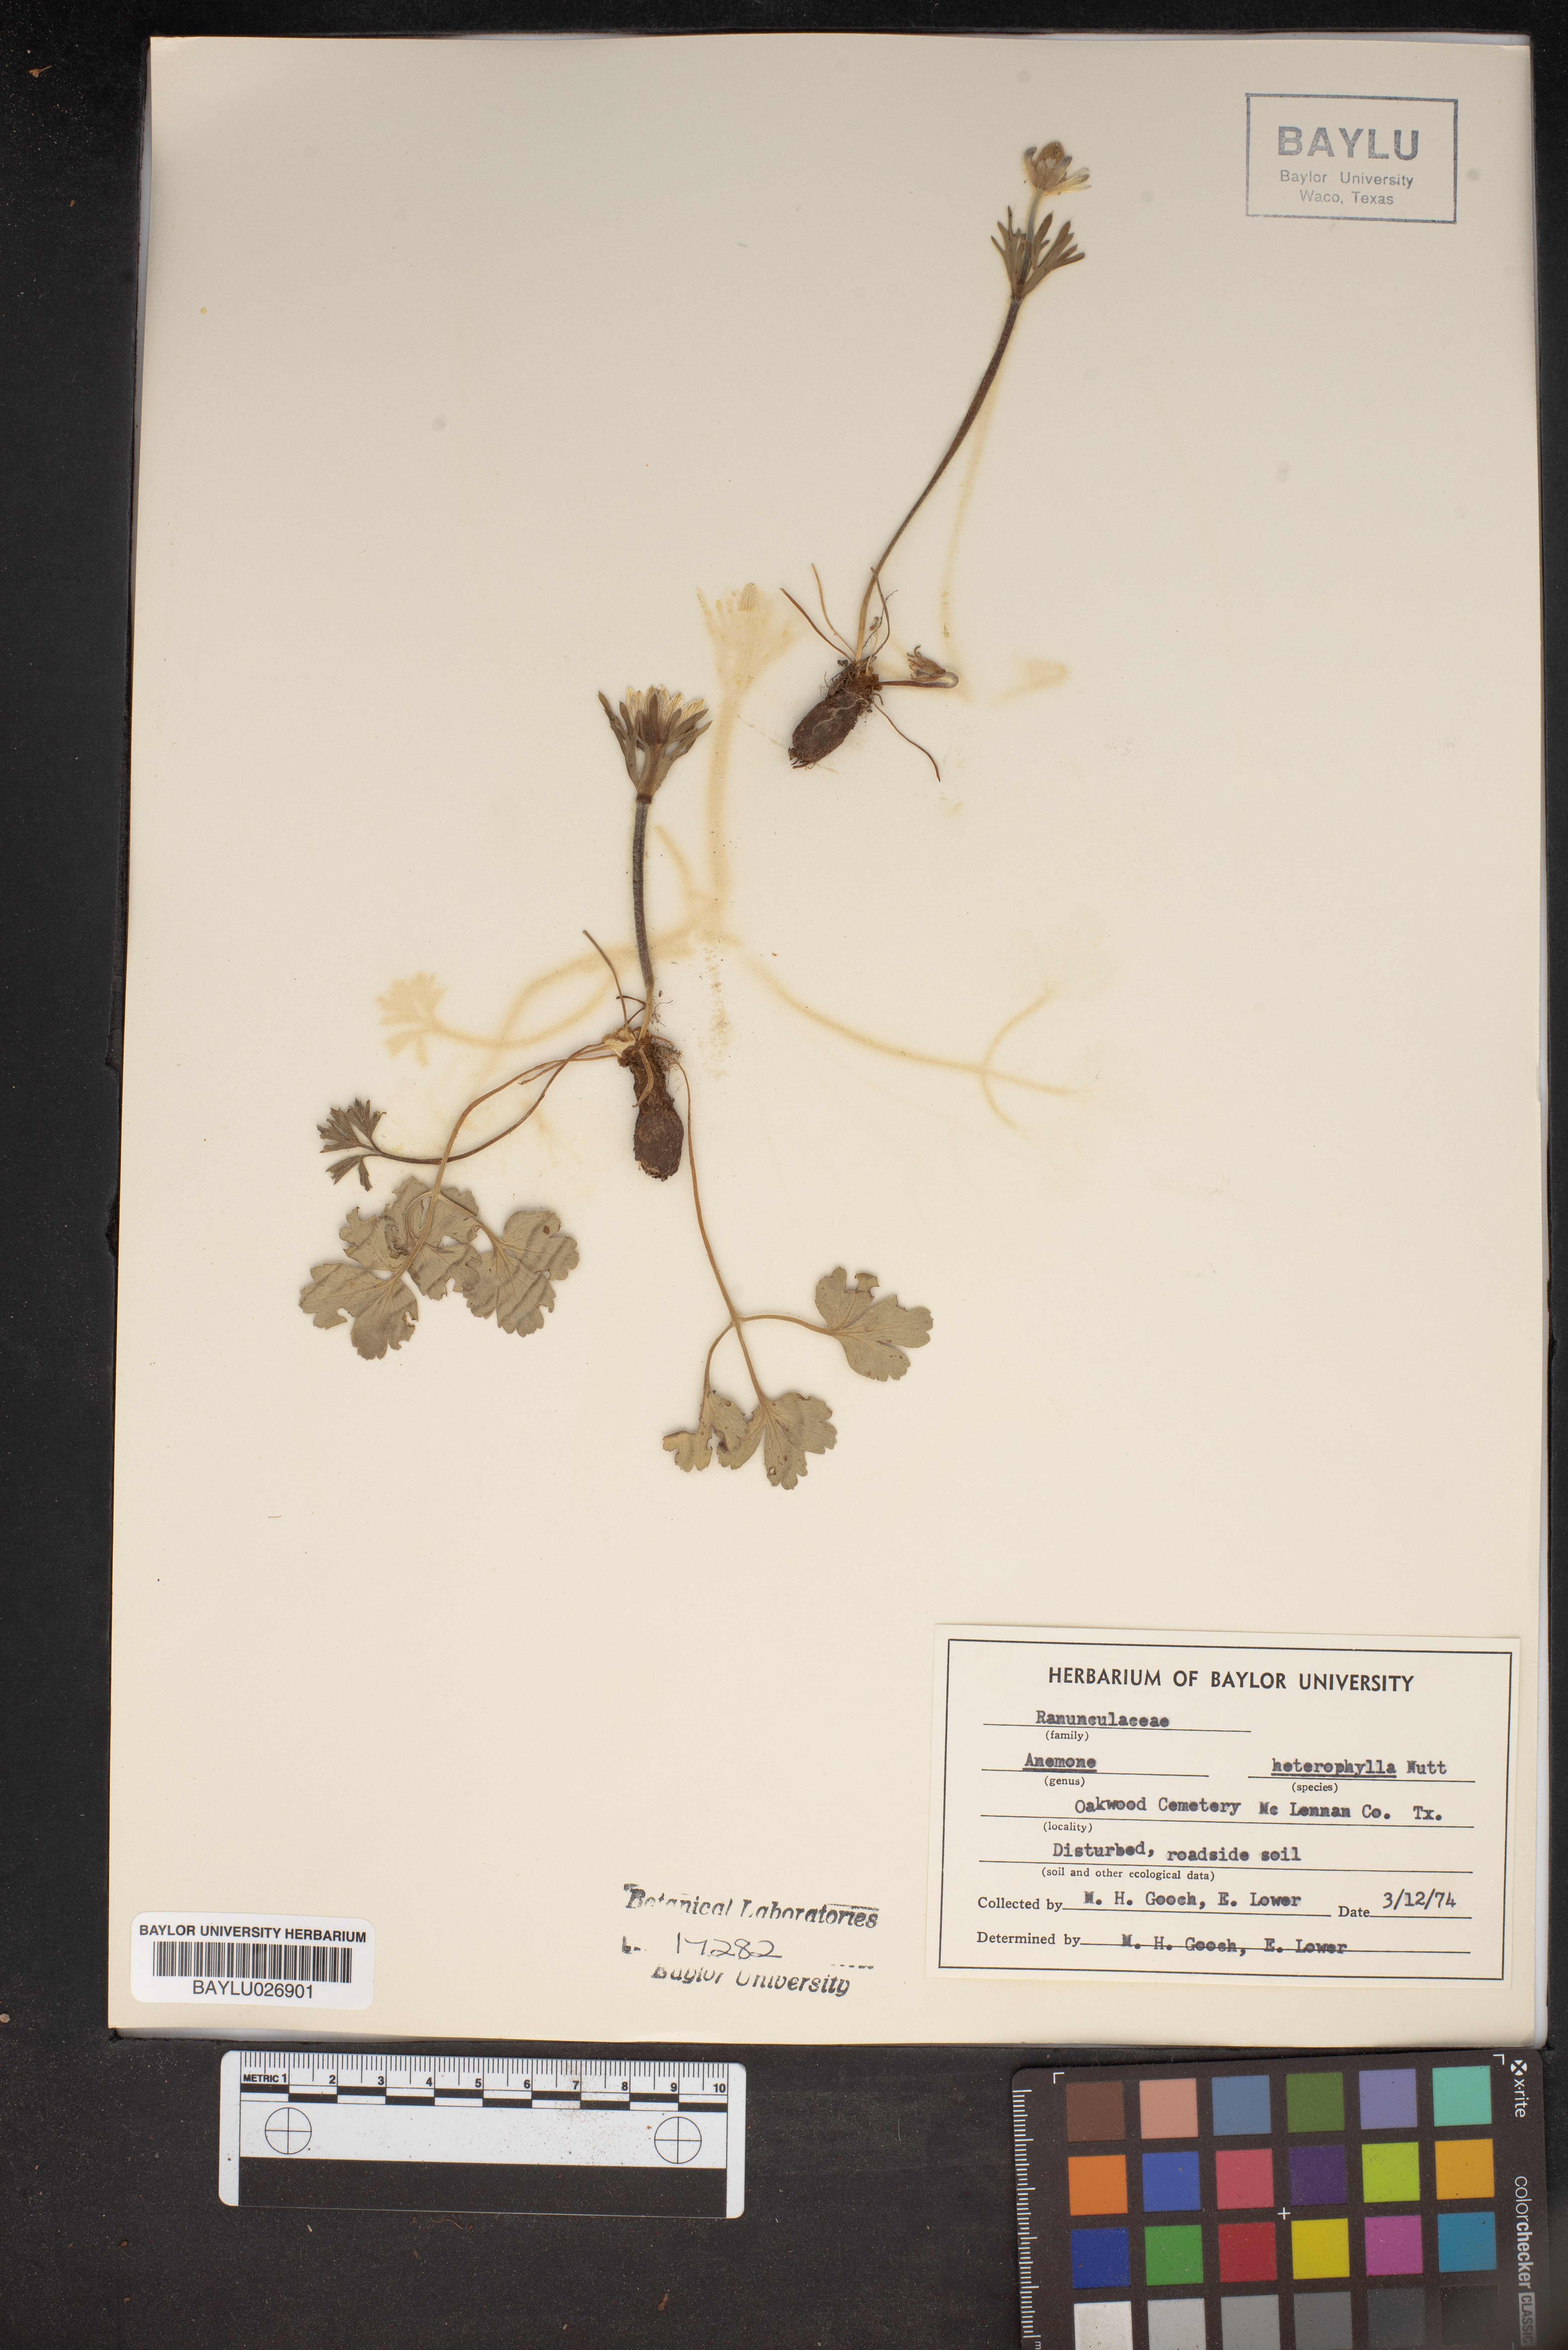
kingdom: Plantae
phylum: Tracheophyta
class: Magnoliopsida
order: Ranunculales
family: Ranunculaceae
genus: Anemone
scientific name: Anemone heterophylla
